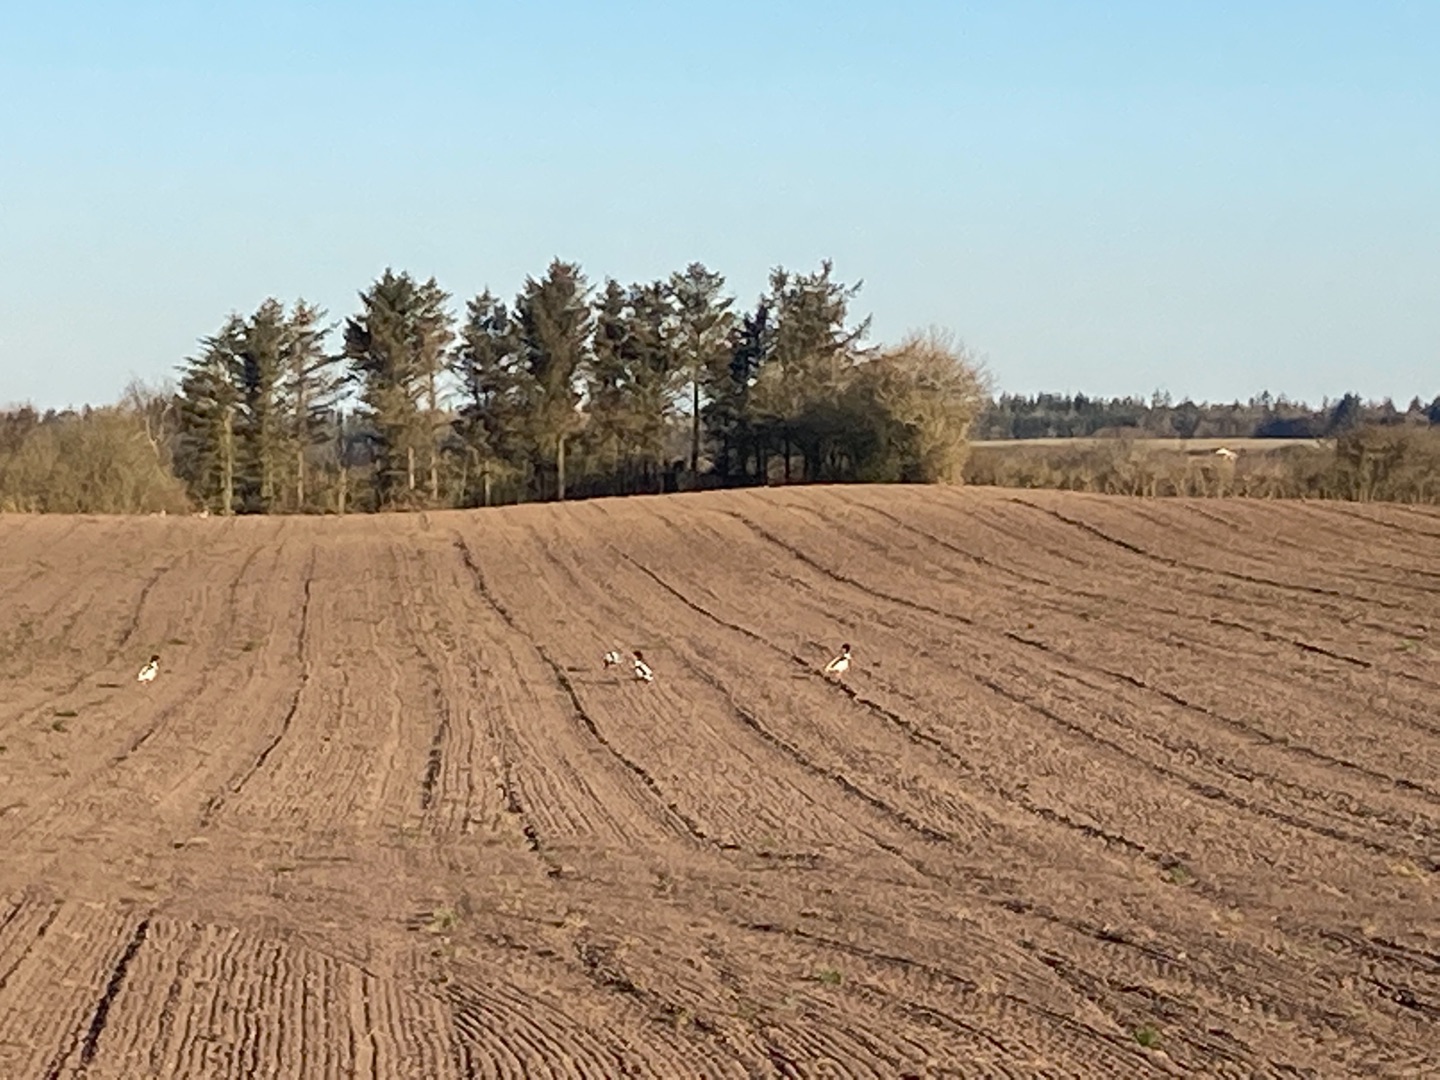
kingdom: Animalia
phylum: Chordata
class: Aves
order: Anseriformes
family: Anatidae
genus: Tadorna
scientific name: Tadorna tadorna
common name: Gravand
